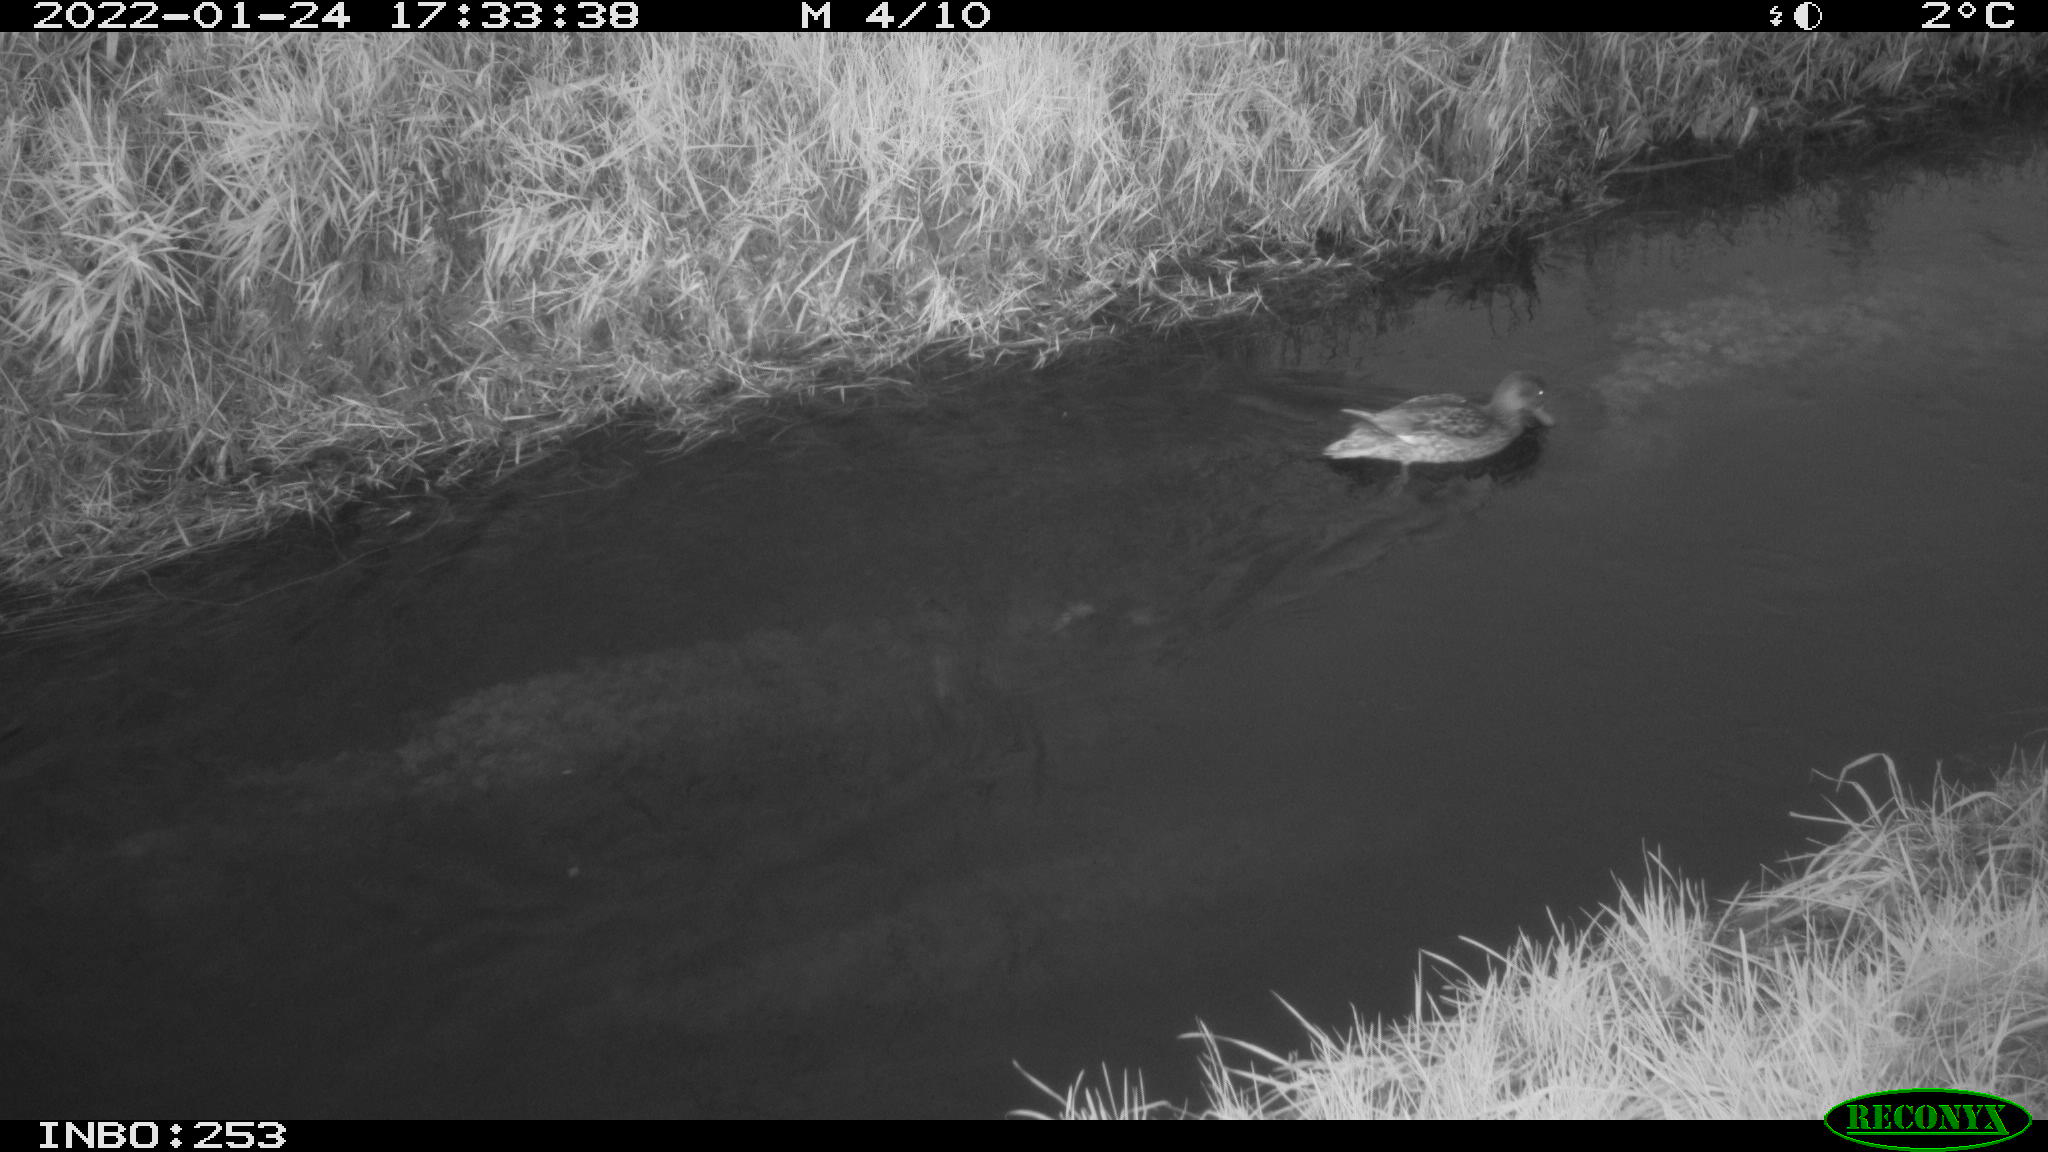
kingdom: Animalia
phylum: Chordata
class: Aves
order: Anseriformes
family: Anatidae
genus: Anas
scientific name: Anas
